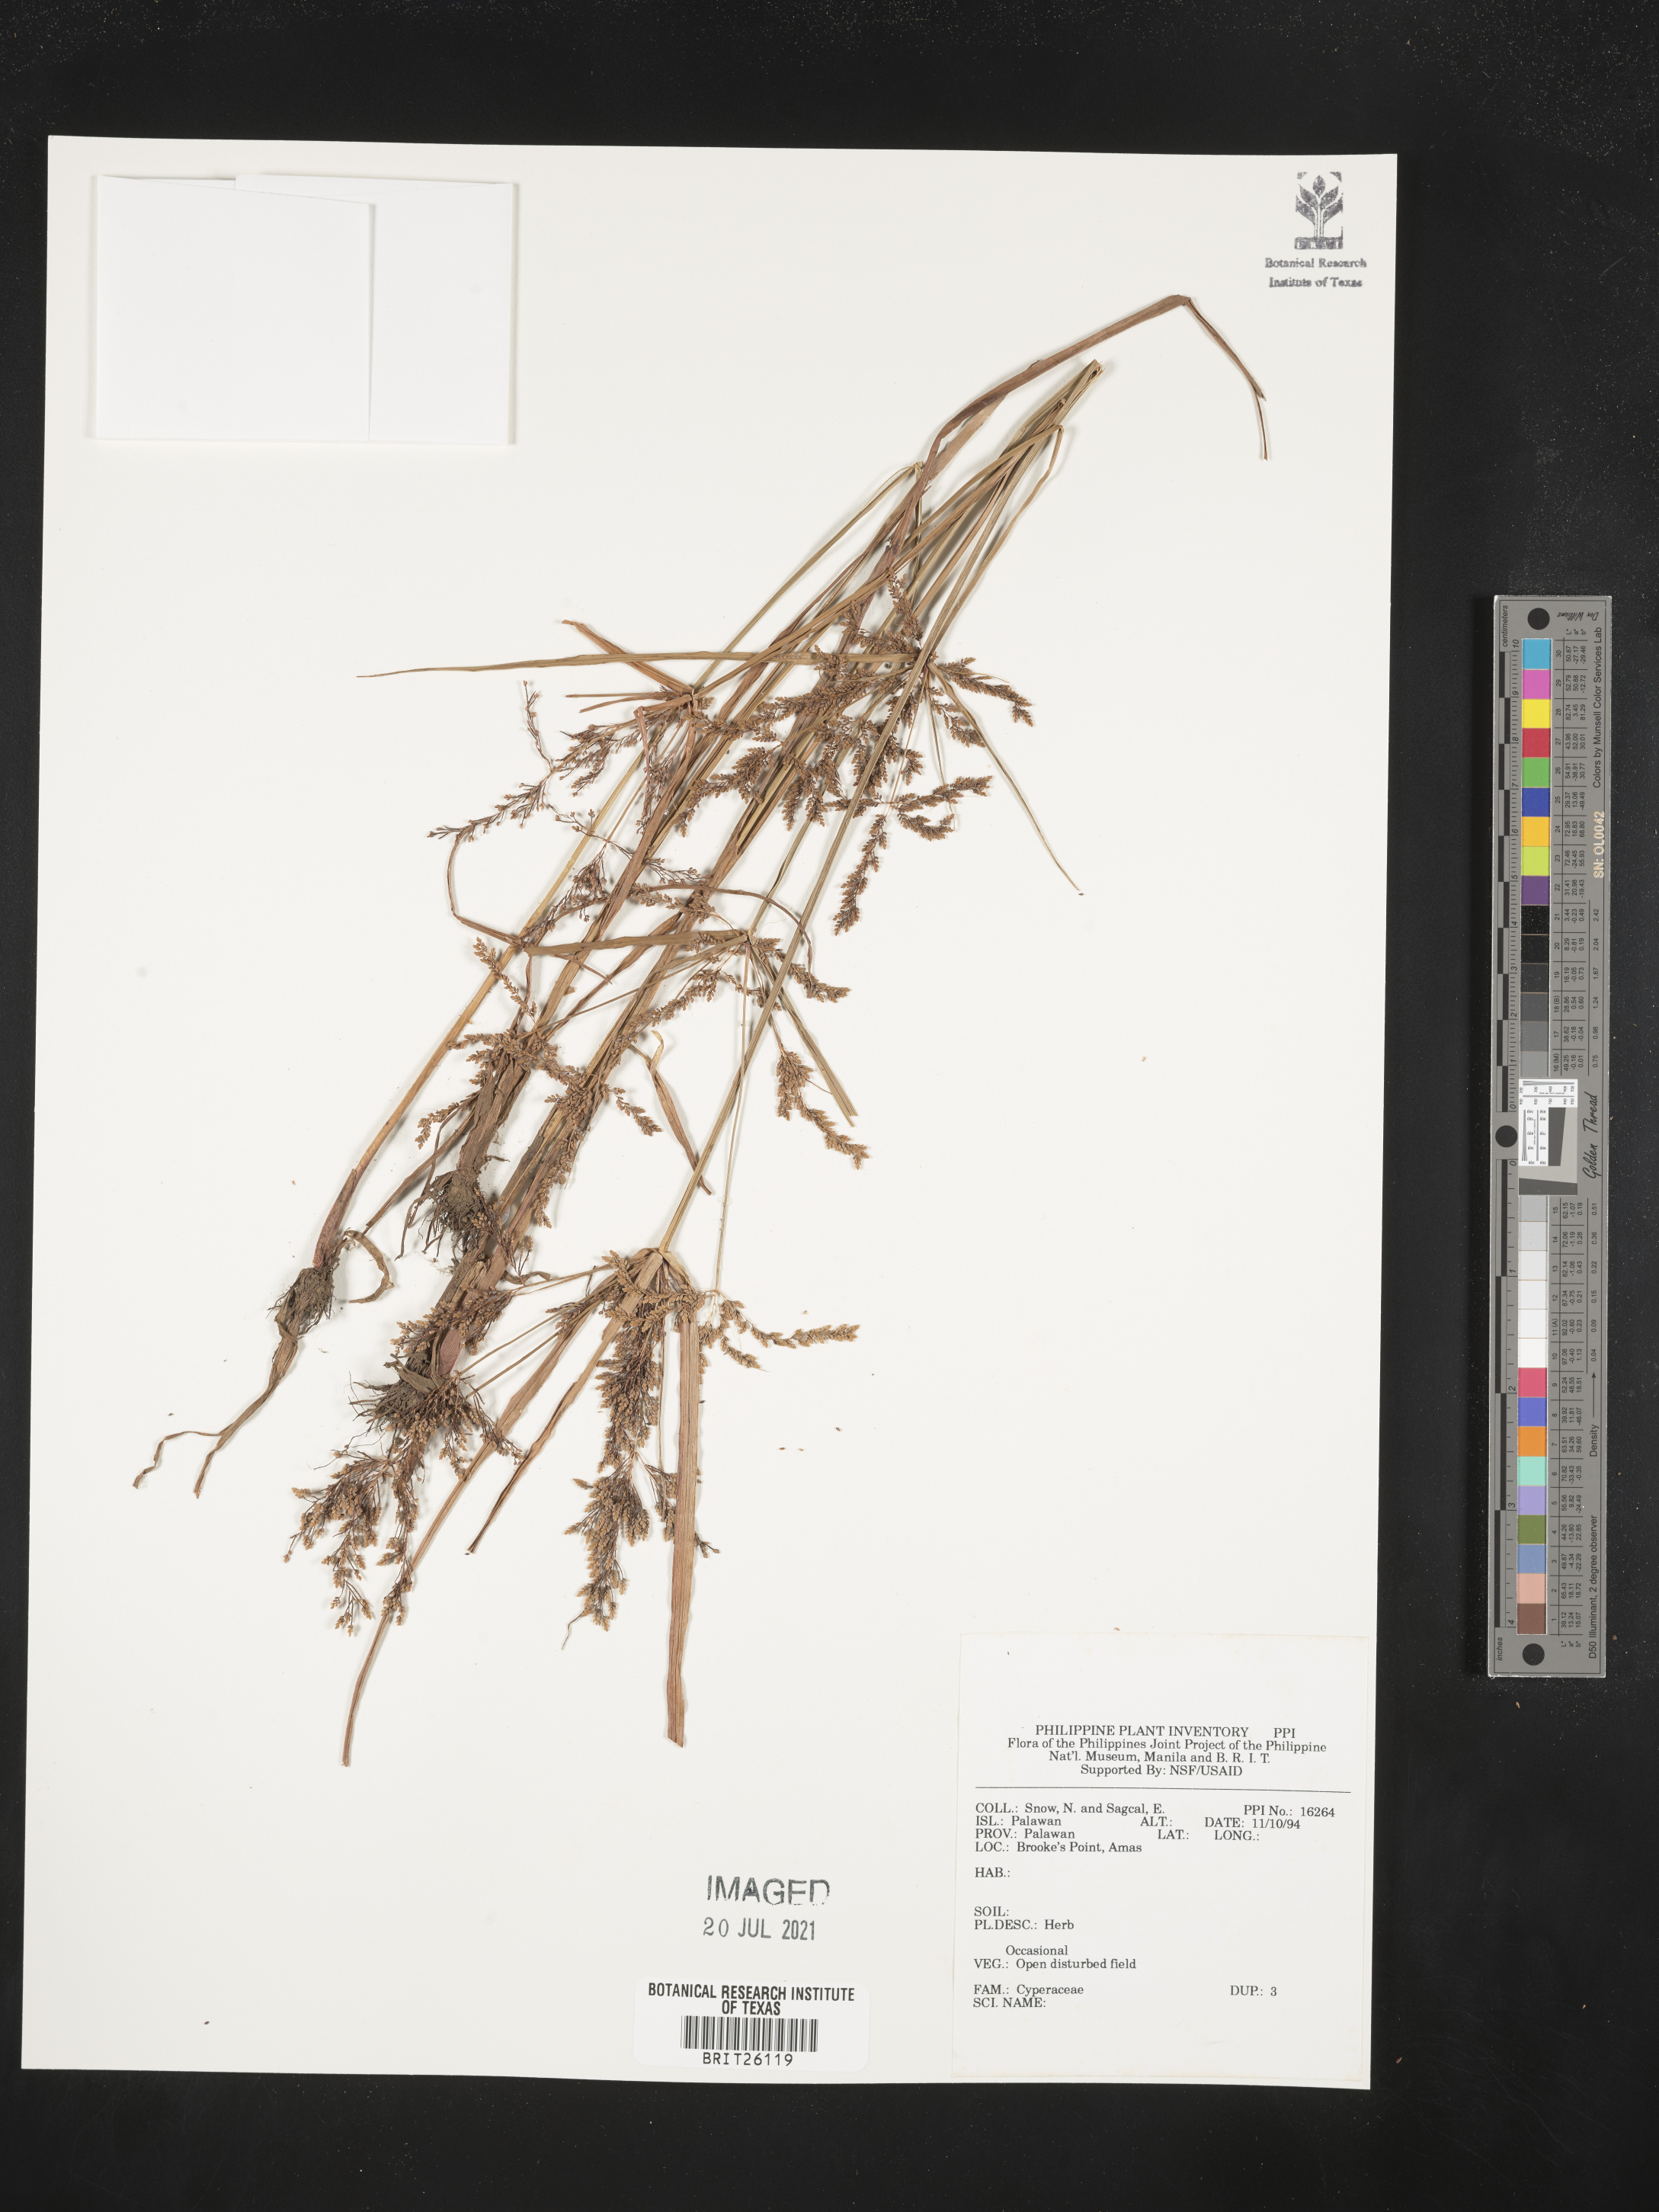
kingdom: Plantae
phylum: Tracheophyta
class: Liliopsida
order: Poales
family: Cyperaceae
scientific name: Cyperaceae
